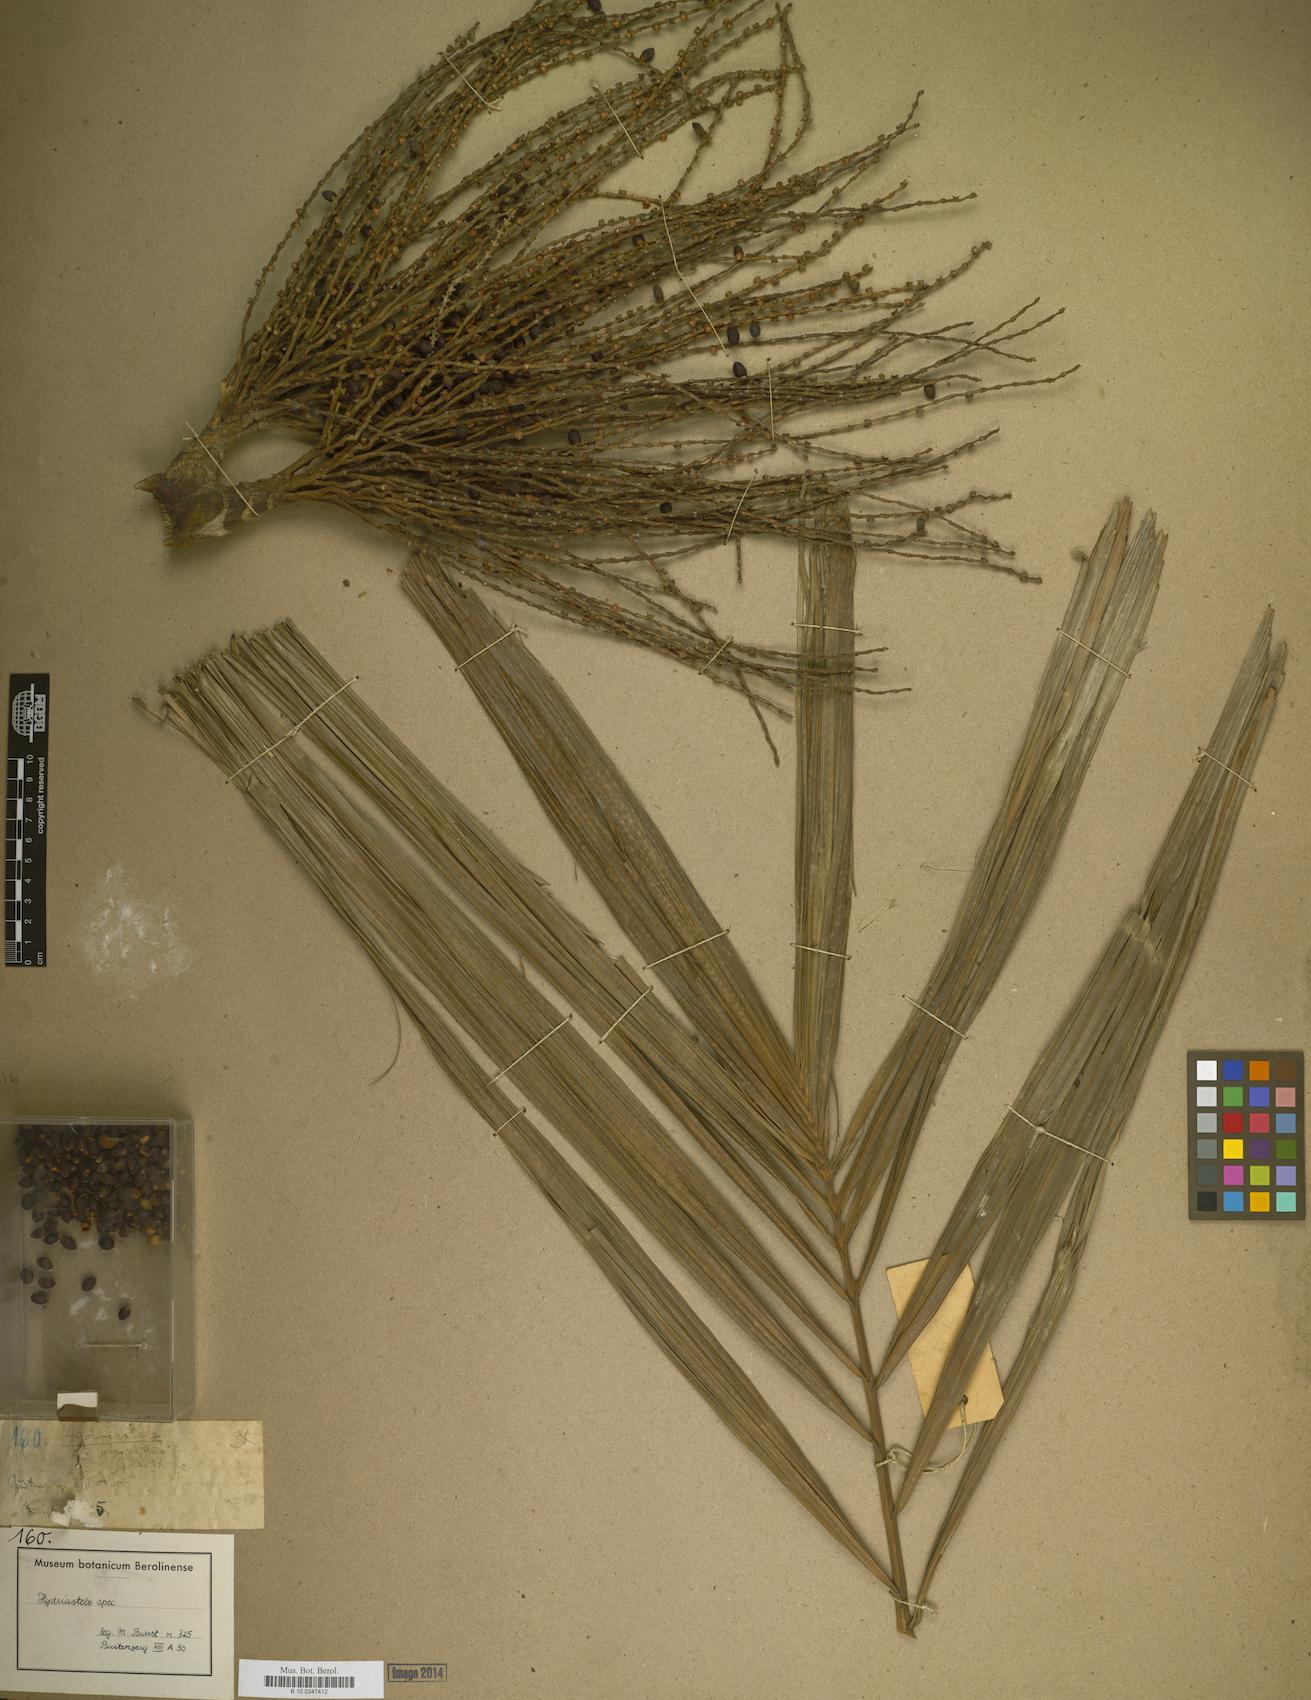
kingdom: Plantae
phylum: Tracheophyta
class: Liliopsida
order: Arecales
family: Arecaceae
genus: Hydriastele
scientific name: Hydriastele
